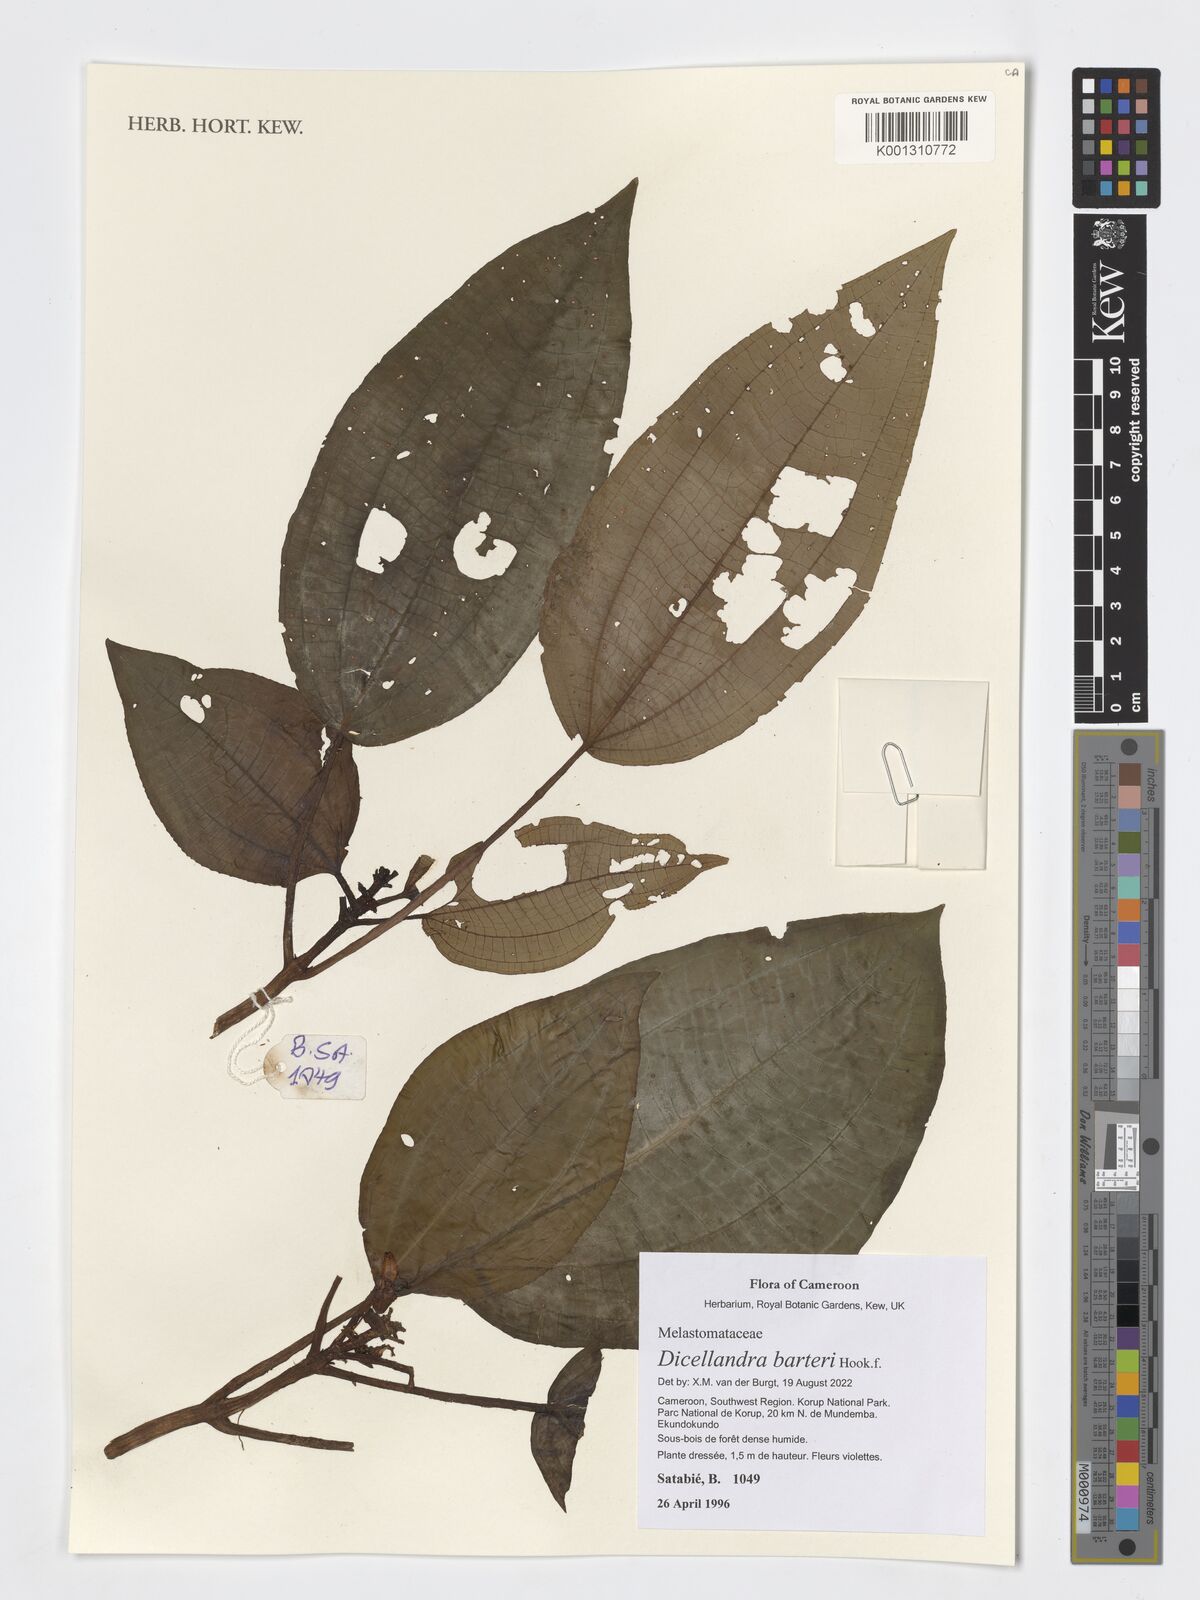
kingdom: Plantae
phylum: Tracheophyta
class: Magnoliopsida
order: Myrtales
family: Melastomataceae
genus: Dicellandra
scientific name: Dicellandra barteri
